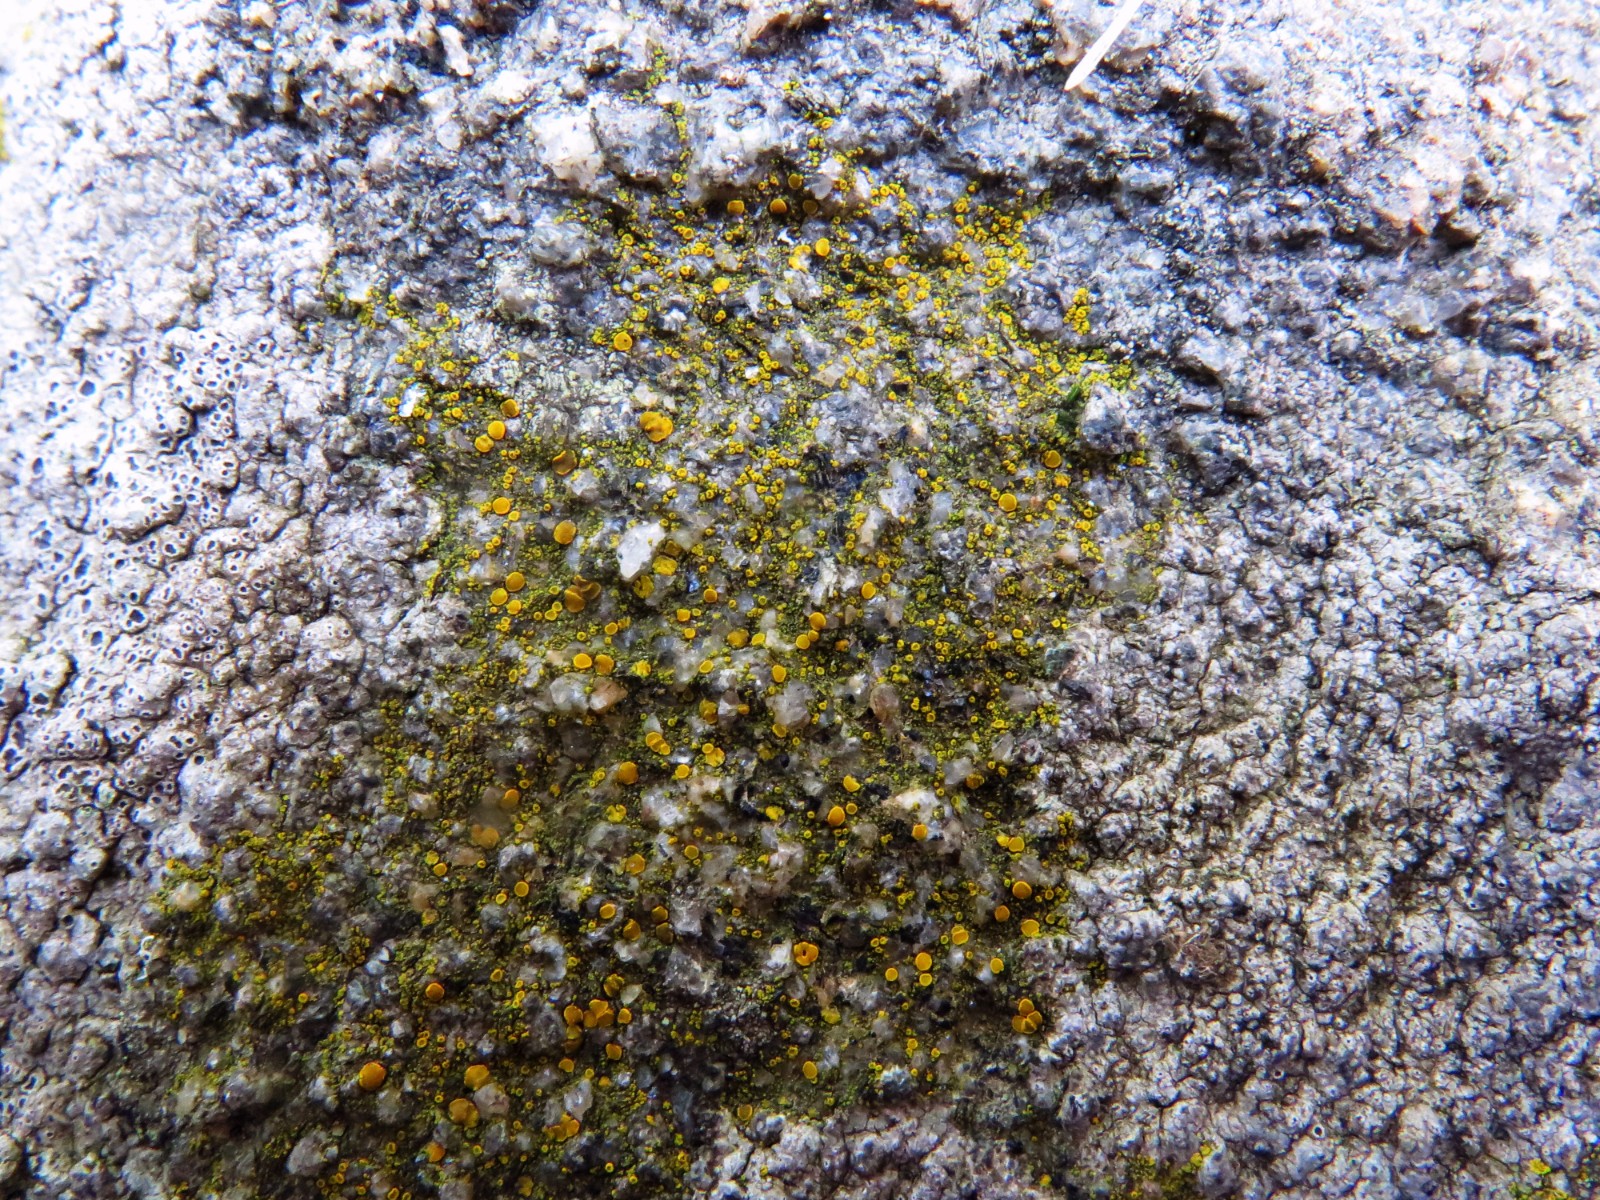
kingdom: Fungi
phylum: Ascomycota
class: Candelariomycetes
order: Candelariales
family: Candelariaceae
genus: Candelariella
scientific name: Candelariella aurella
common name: liden æggeblommelav
